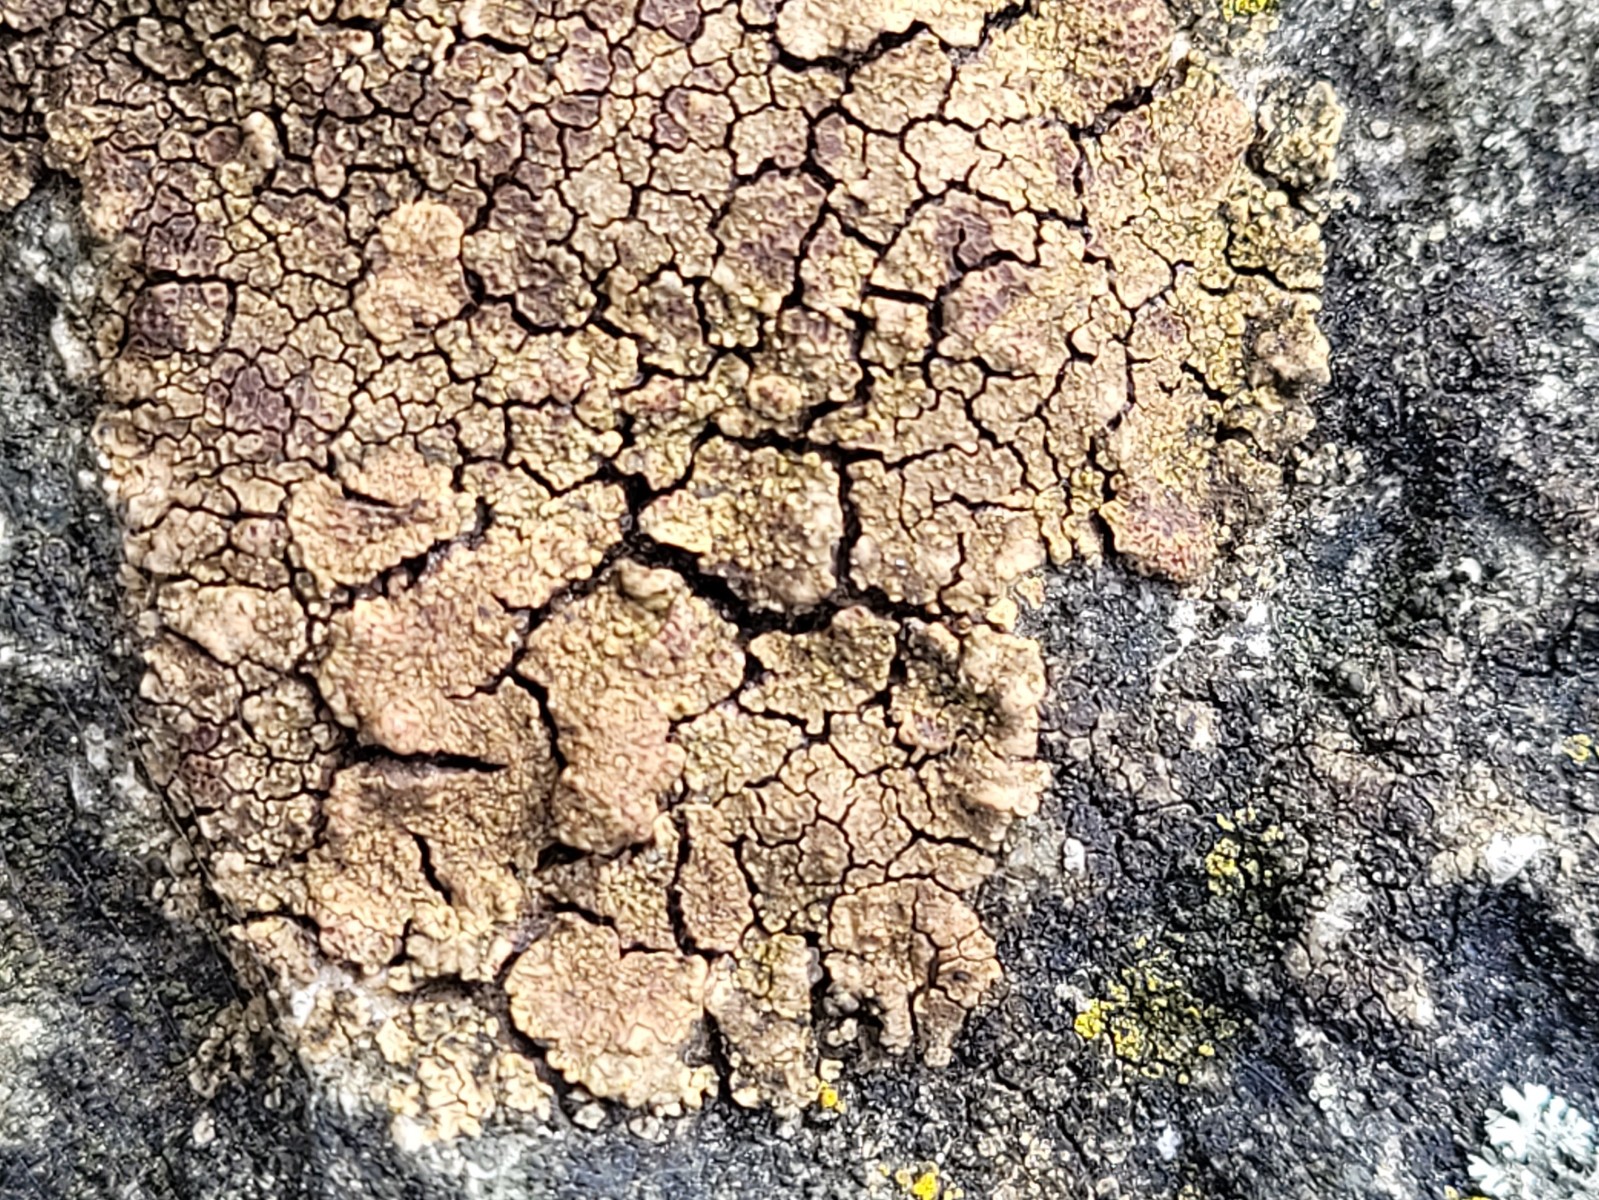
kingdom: Fungi
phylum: Ascomycota
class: Lecanoromycetes
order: Acarosporales
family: Acarosporaceae
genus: Acarospora
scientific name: Acarospora fuscata
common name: brun småsporelav
